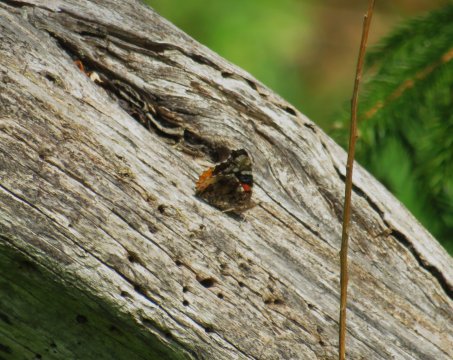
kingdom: Animalia
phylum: Arthropoda
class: Insecta
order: Lepidoptera
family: Nymphalidae
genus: Vanessa
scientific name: Vanessa atalanta
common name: Red Admiral
